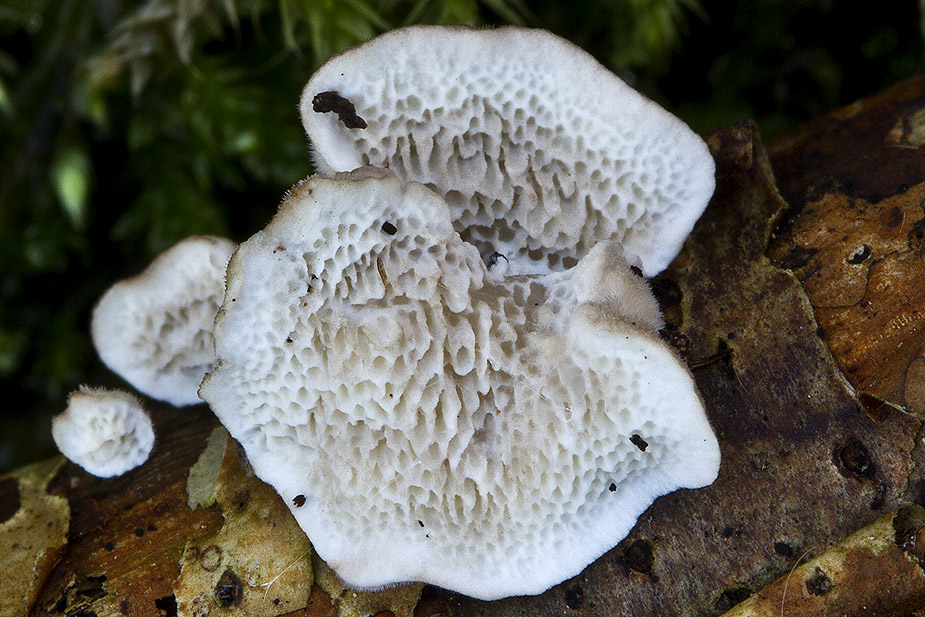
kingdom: Fungi
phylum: Basidiomycota
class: Agaricomycetes
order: Polyporales
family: Polyporaceae
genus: Trametes
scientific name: Trametes versicolor
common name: broget læderporesvamp
